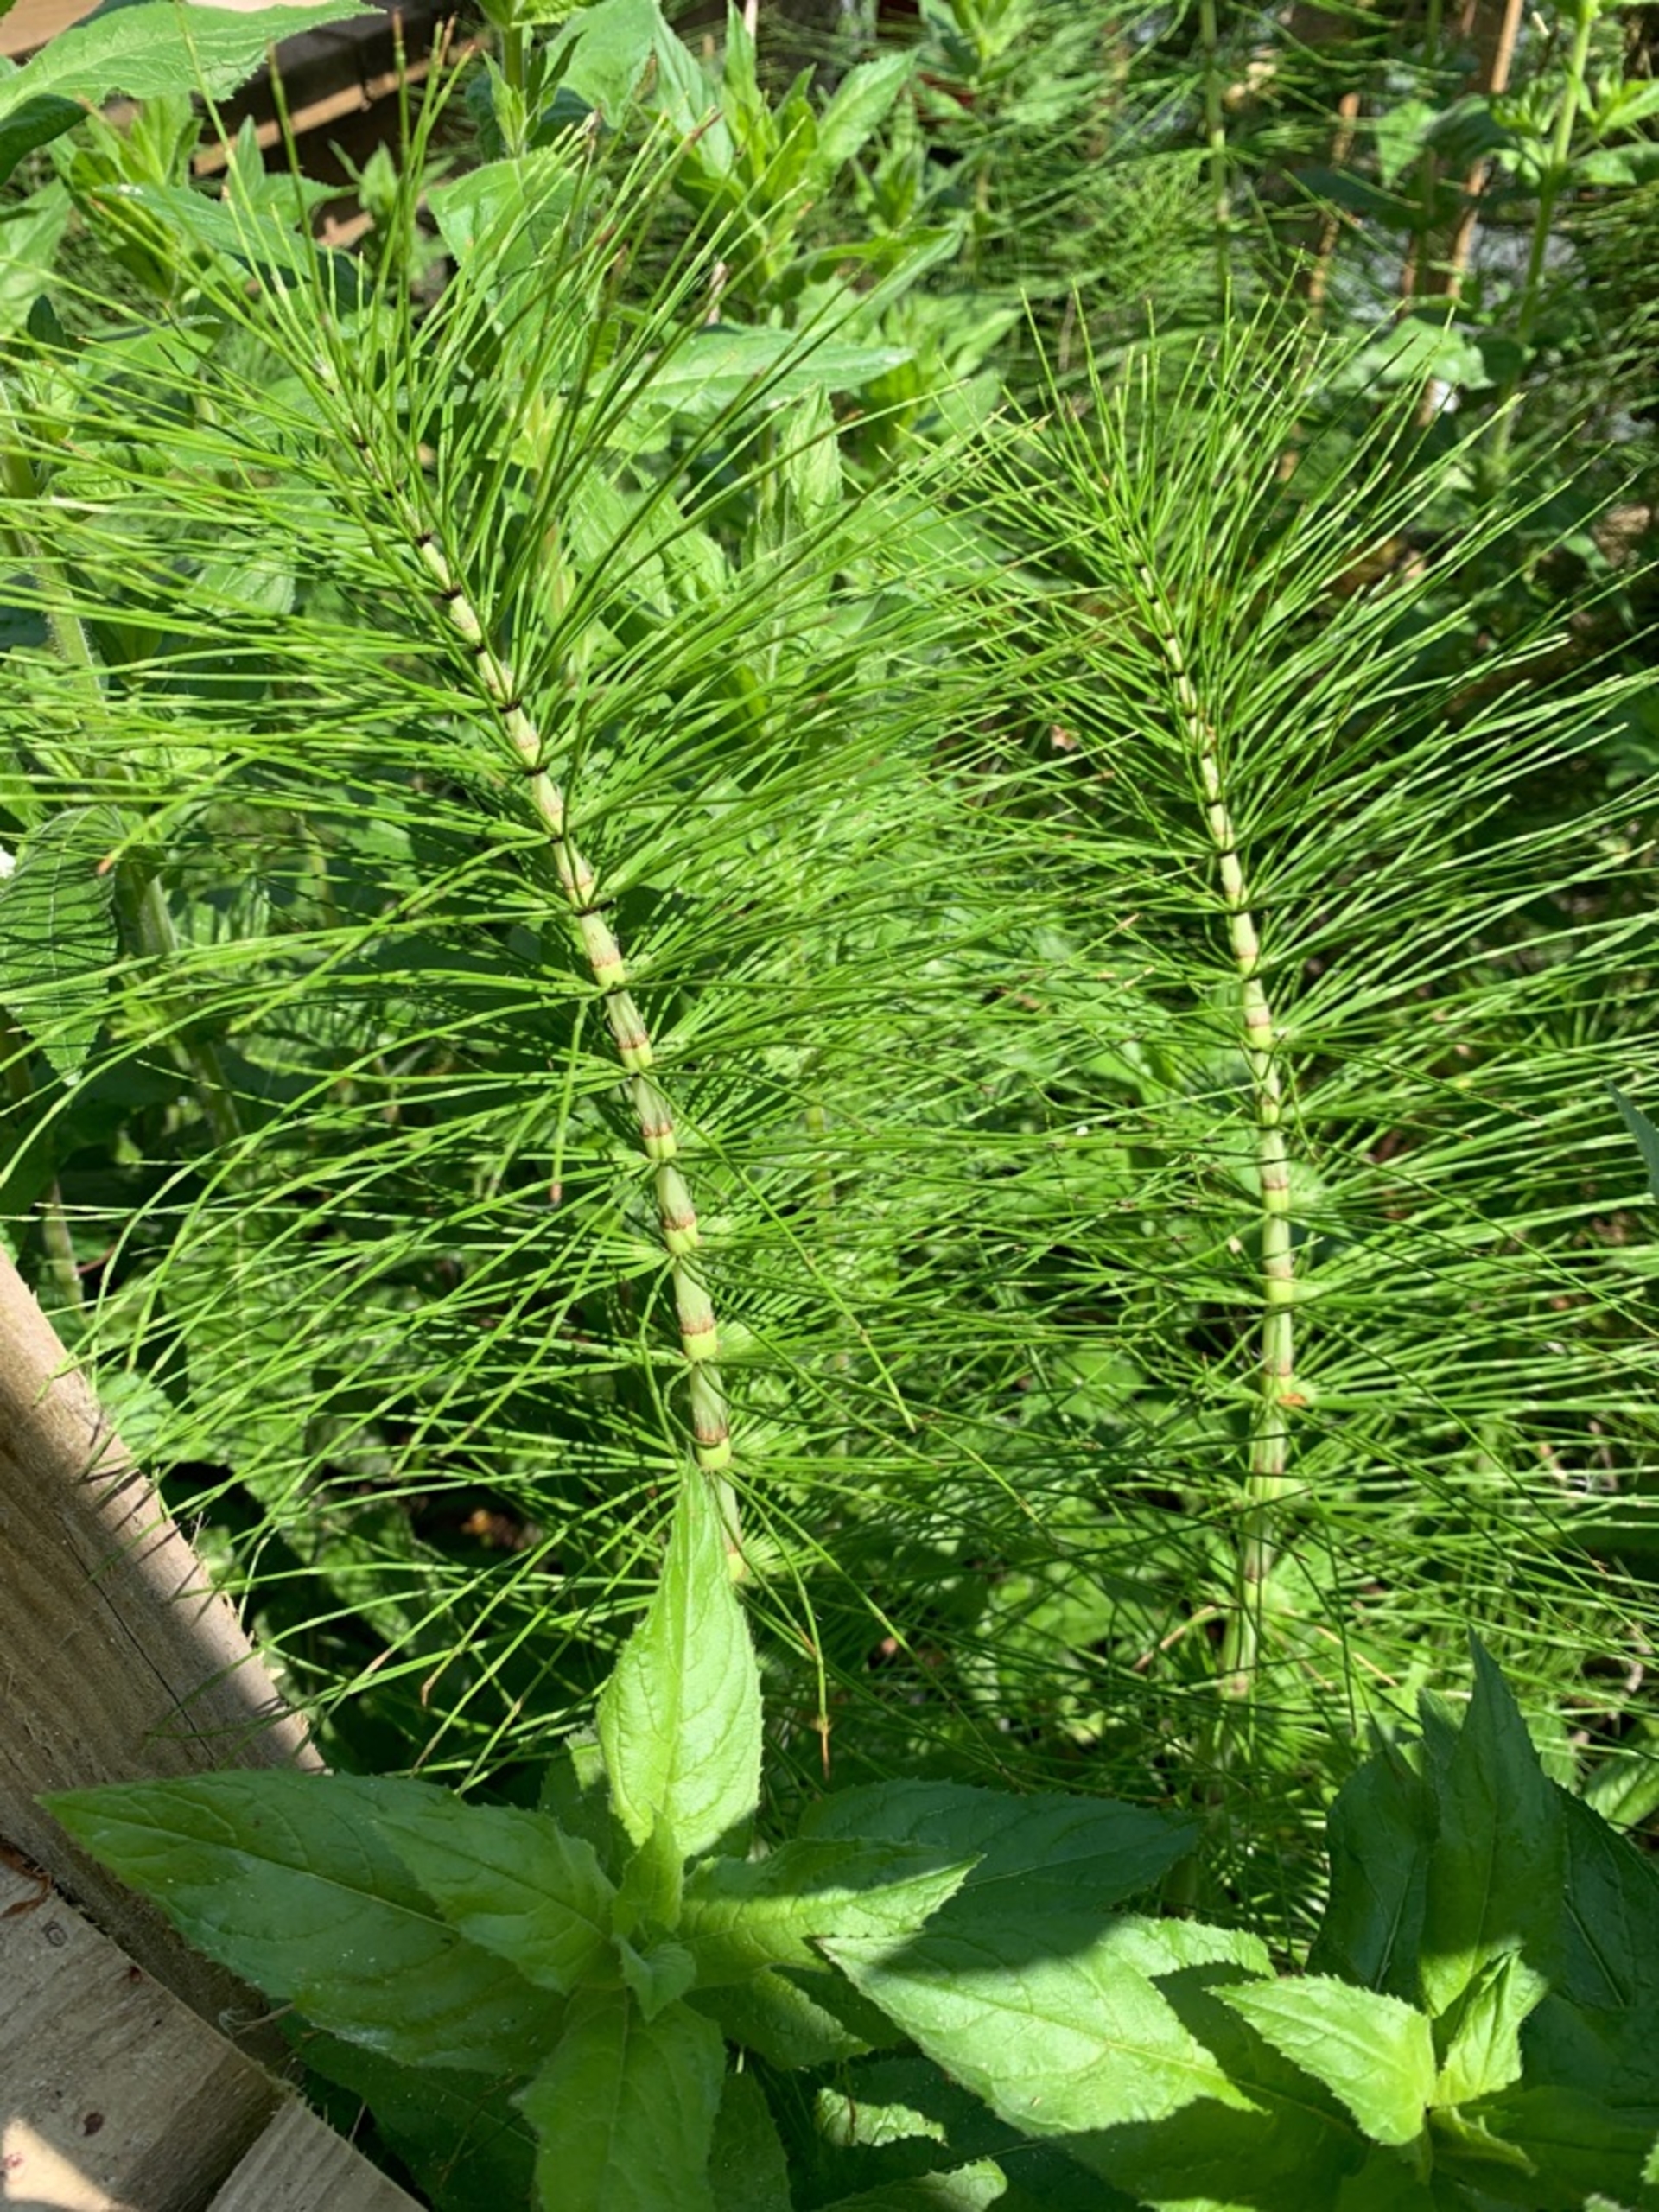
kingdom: Plantae
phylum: Tracheophyta
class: Polypodiopsida
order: Equisetales
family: Equisetaceae
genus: Equisetum
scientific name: Equisetum telmateia
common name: Elfenbens-padderok
